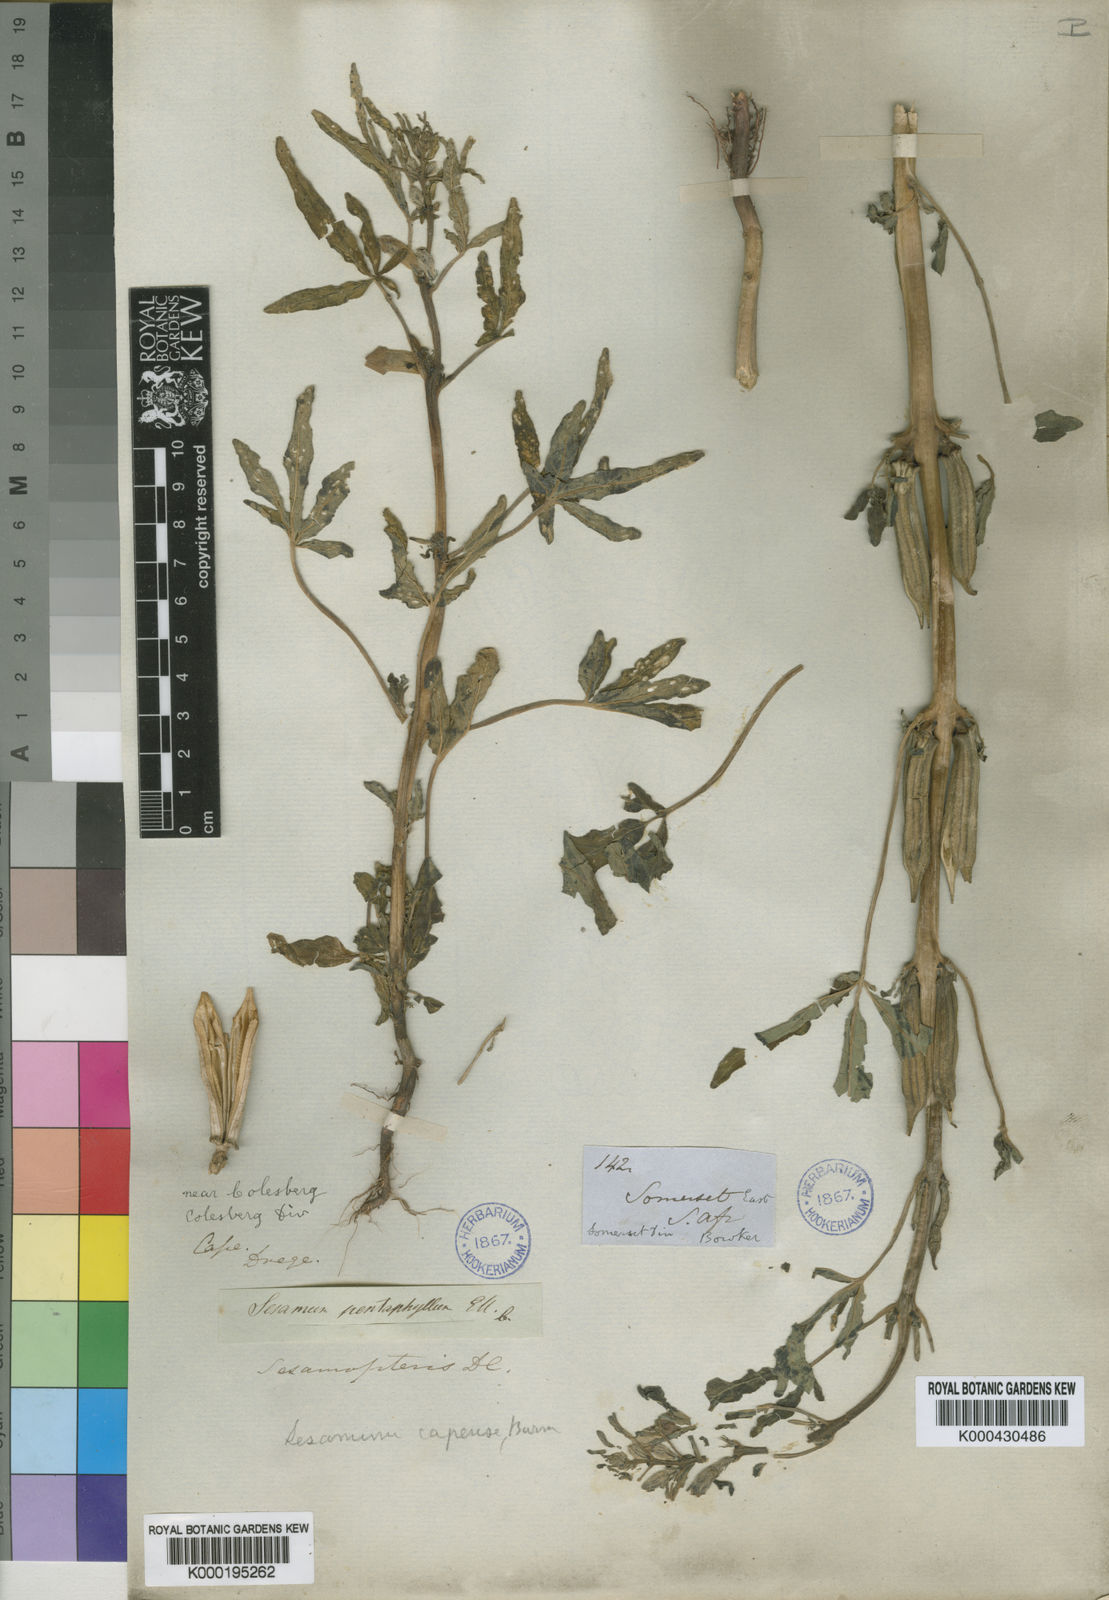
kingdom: Plantae
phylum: Tracheophyta
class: Magnoliopsida
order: Lamiales
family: Pedaliaceae
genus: Sesamum
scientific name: Sesamum capense
